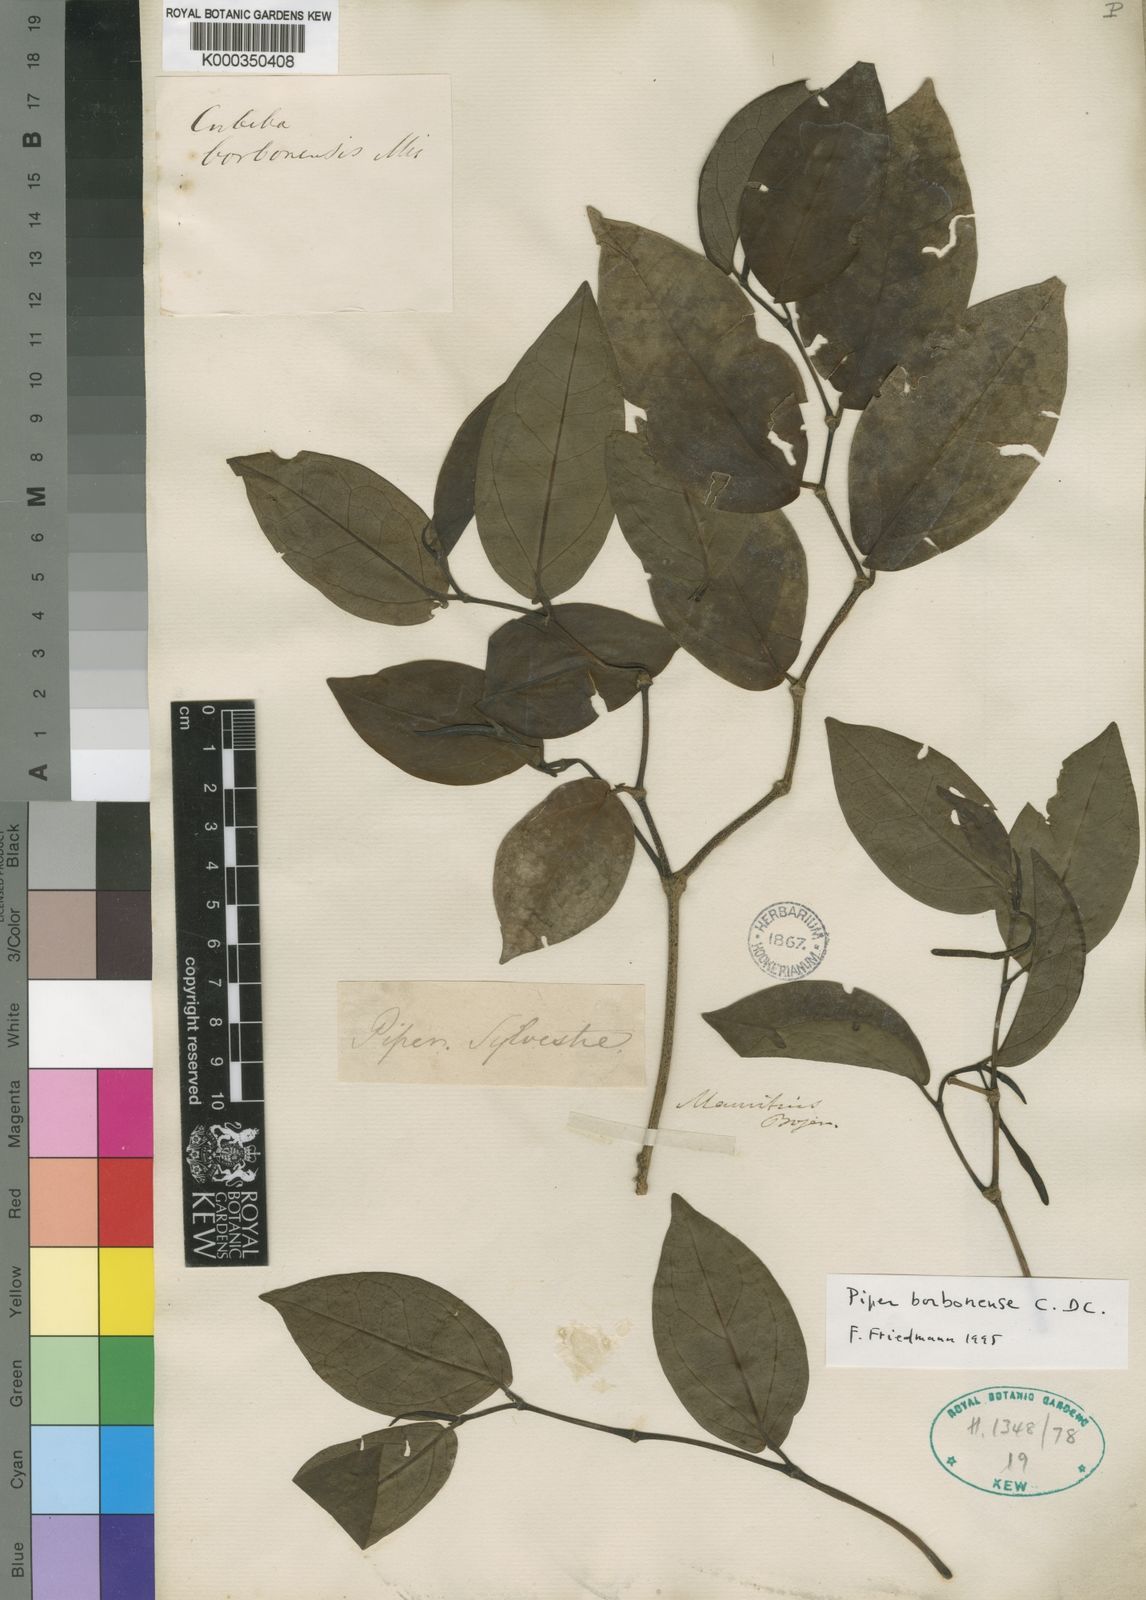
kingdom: Plantae
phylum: Tracheophyta
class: Magnoliopsida
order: Piperales
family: Piperaceae
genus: Piper
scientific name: Piper borbonense
